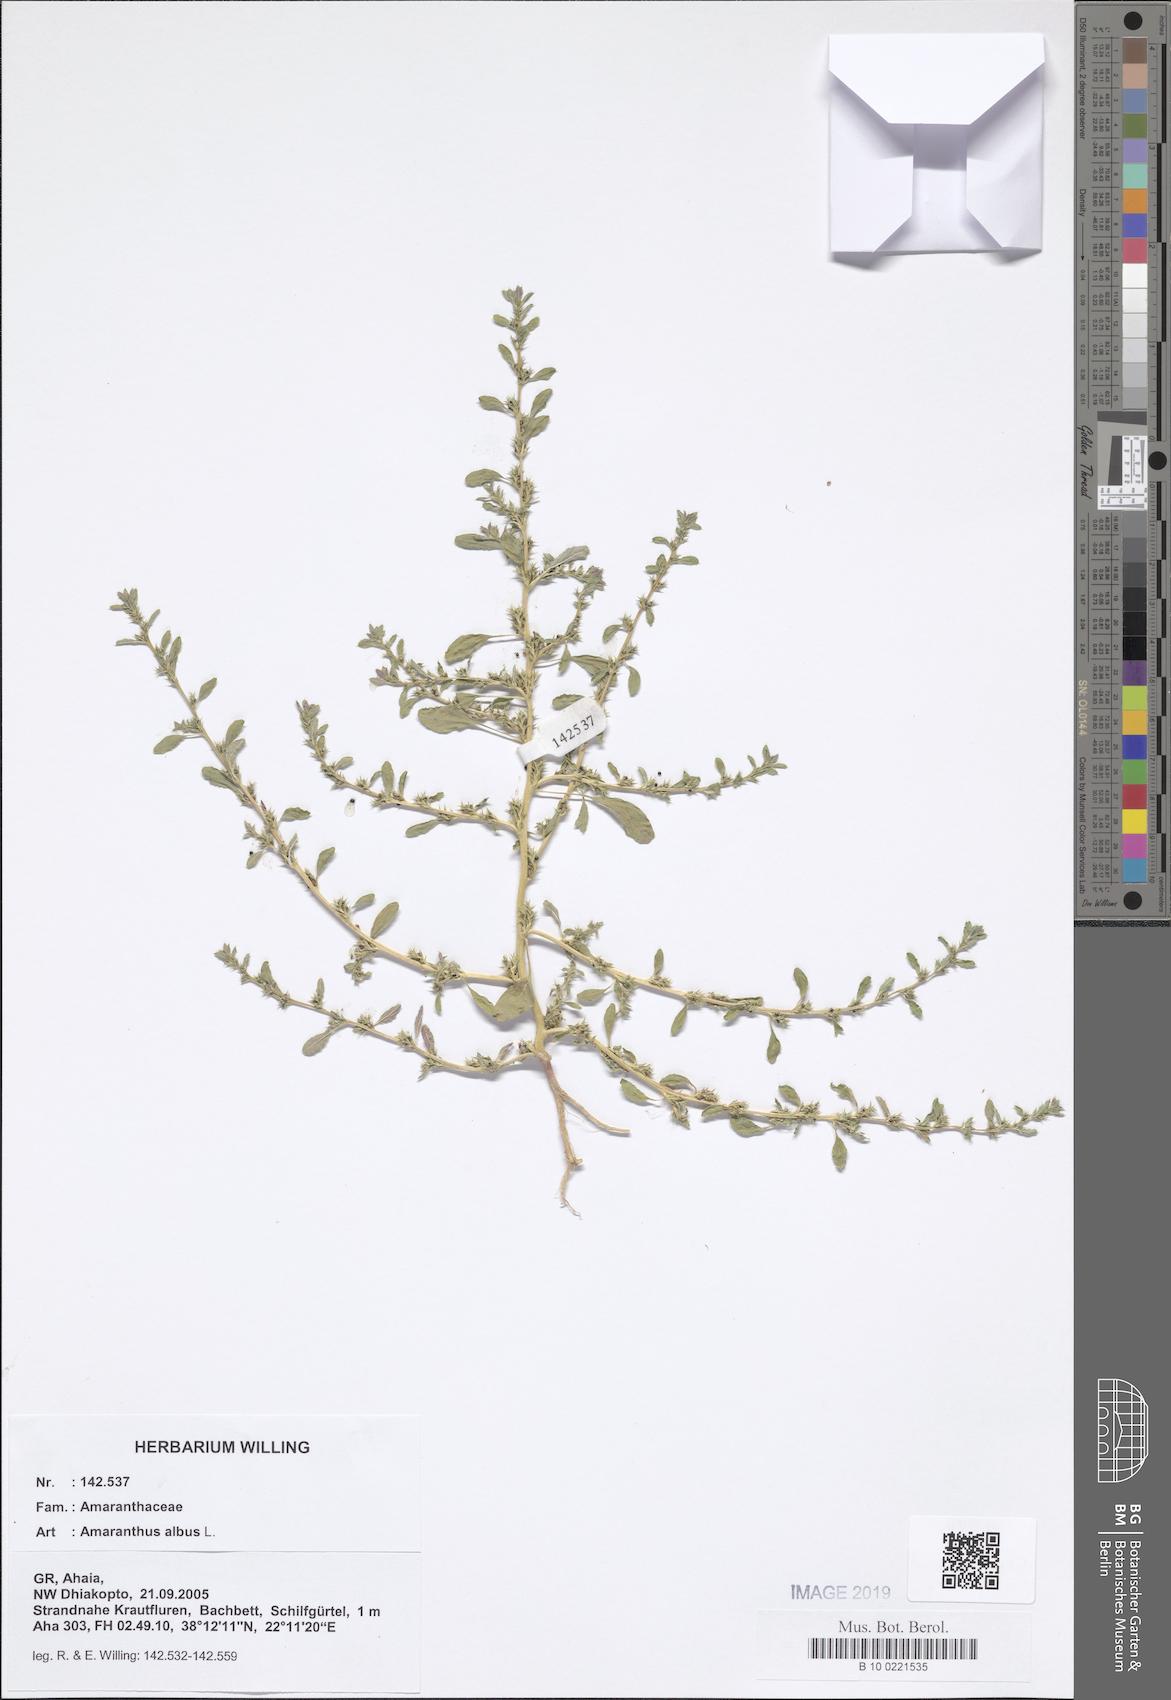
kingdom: Plantae
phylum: Tracheophyta
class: Magnoliopsida
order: Caryophyllales
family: Amaranthaceae
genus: Amaranthus
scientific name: Amaranthus albus
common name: White pigweed
